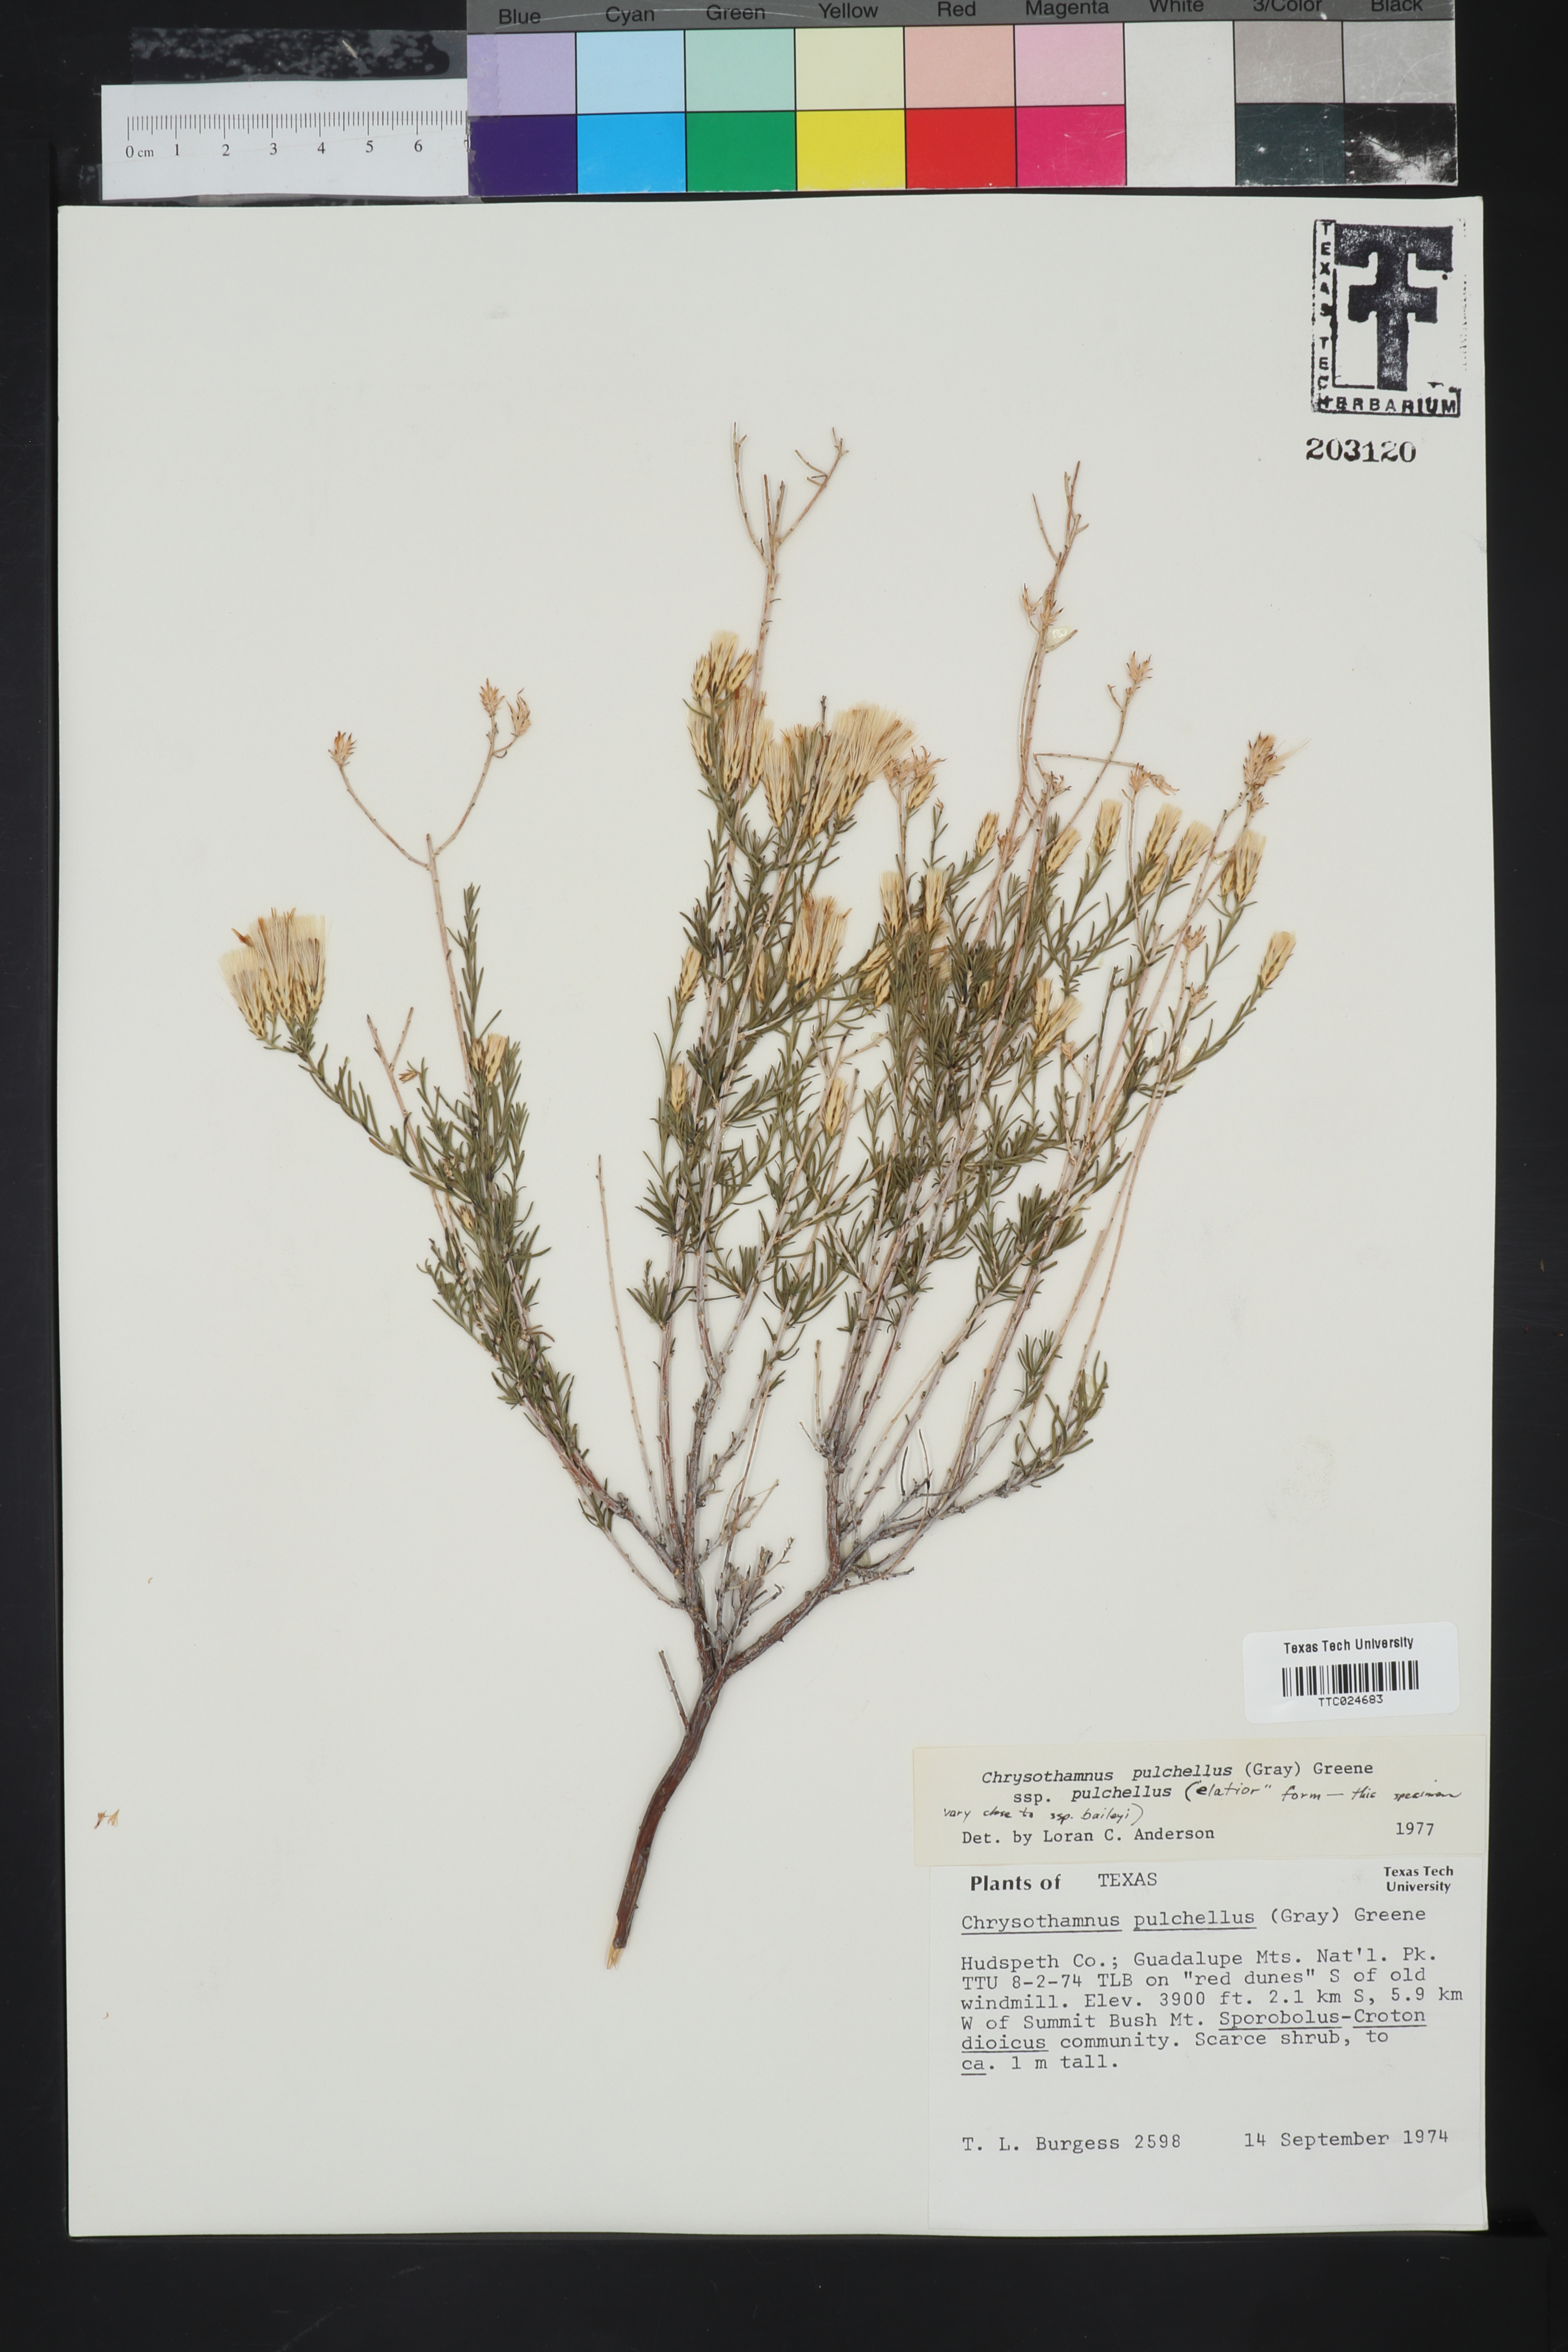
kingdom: Plantae
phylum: Tracheophyta
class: Magnoliopsida
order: Asterales
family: Asteraceae
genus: Lorandersonia
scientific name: Lorandersonia pulchella
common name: Southwestern rabbitbrush
